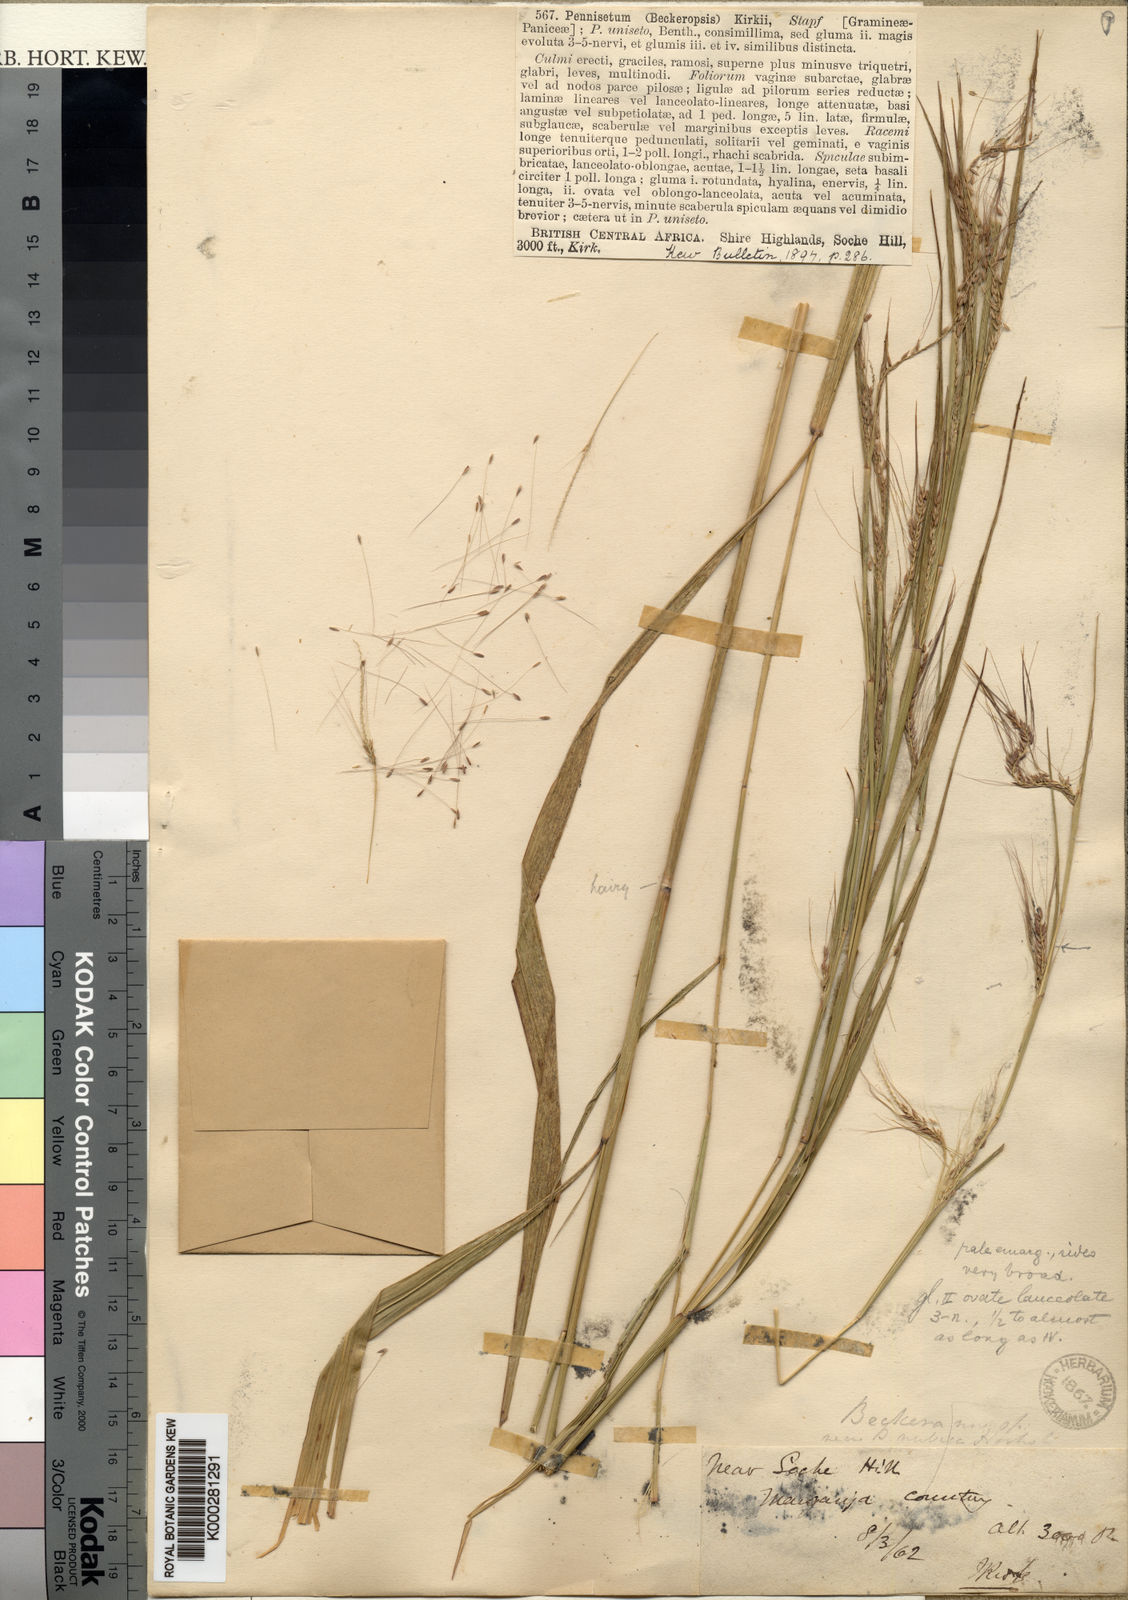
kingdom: Plantae
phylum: Tracheophyta
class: Liliopsida
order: Poales
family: Poaceae
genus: Cenchrus
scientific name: Cenchrus unisetus
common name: Natal grass
